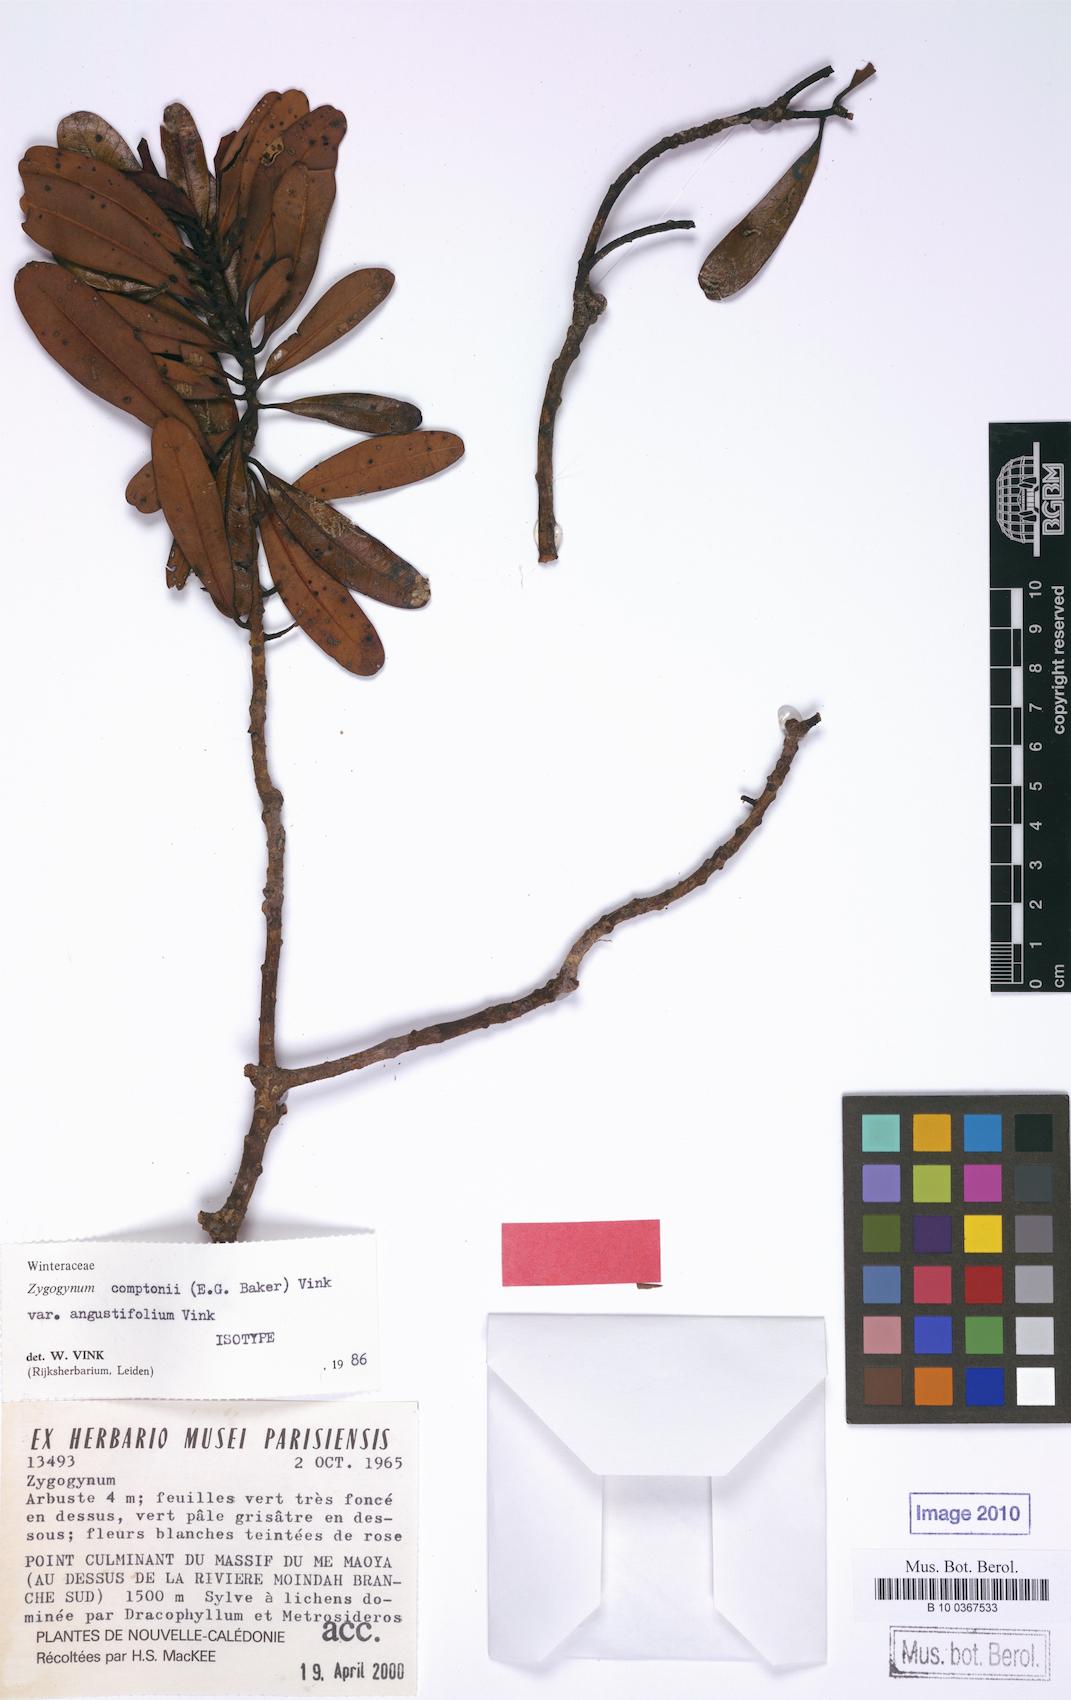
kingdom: Plantae
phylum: Tracheophyta
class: Magnoliopsida
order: Canellales
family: Winteraceae
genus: Zygogynum
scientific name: Zygogynum comptonii
